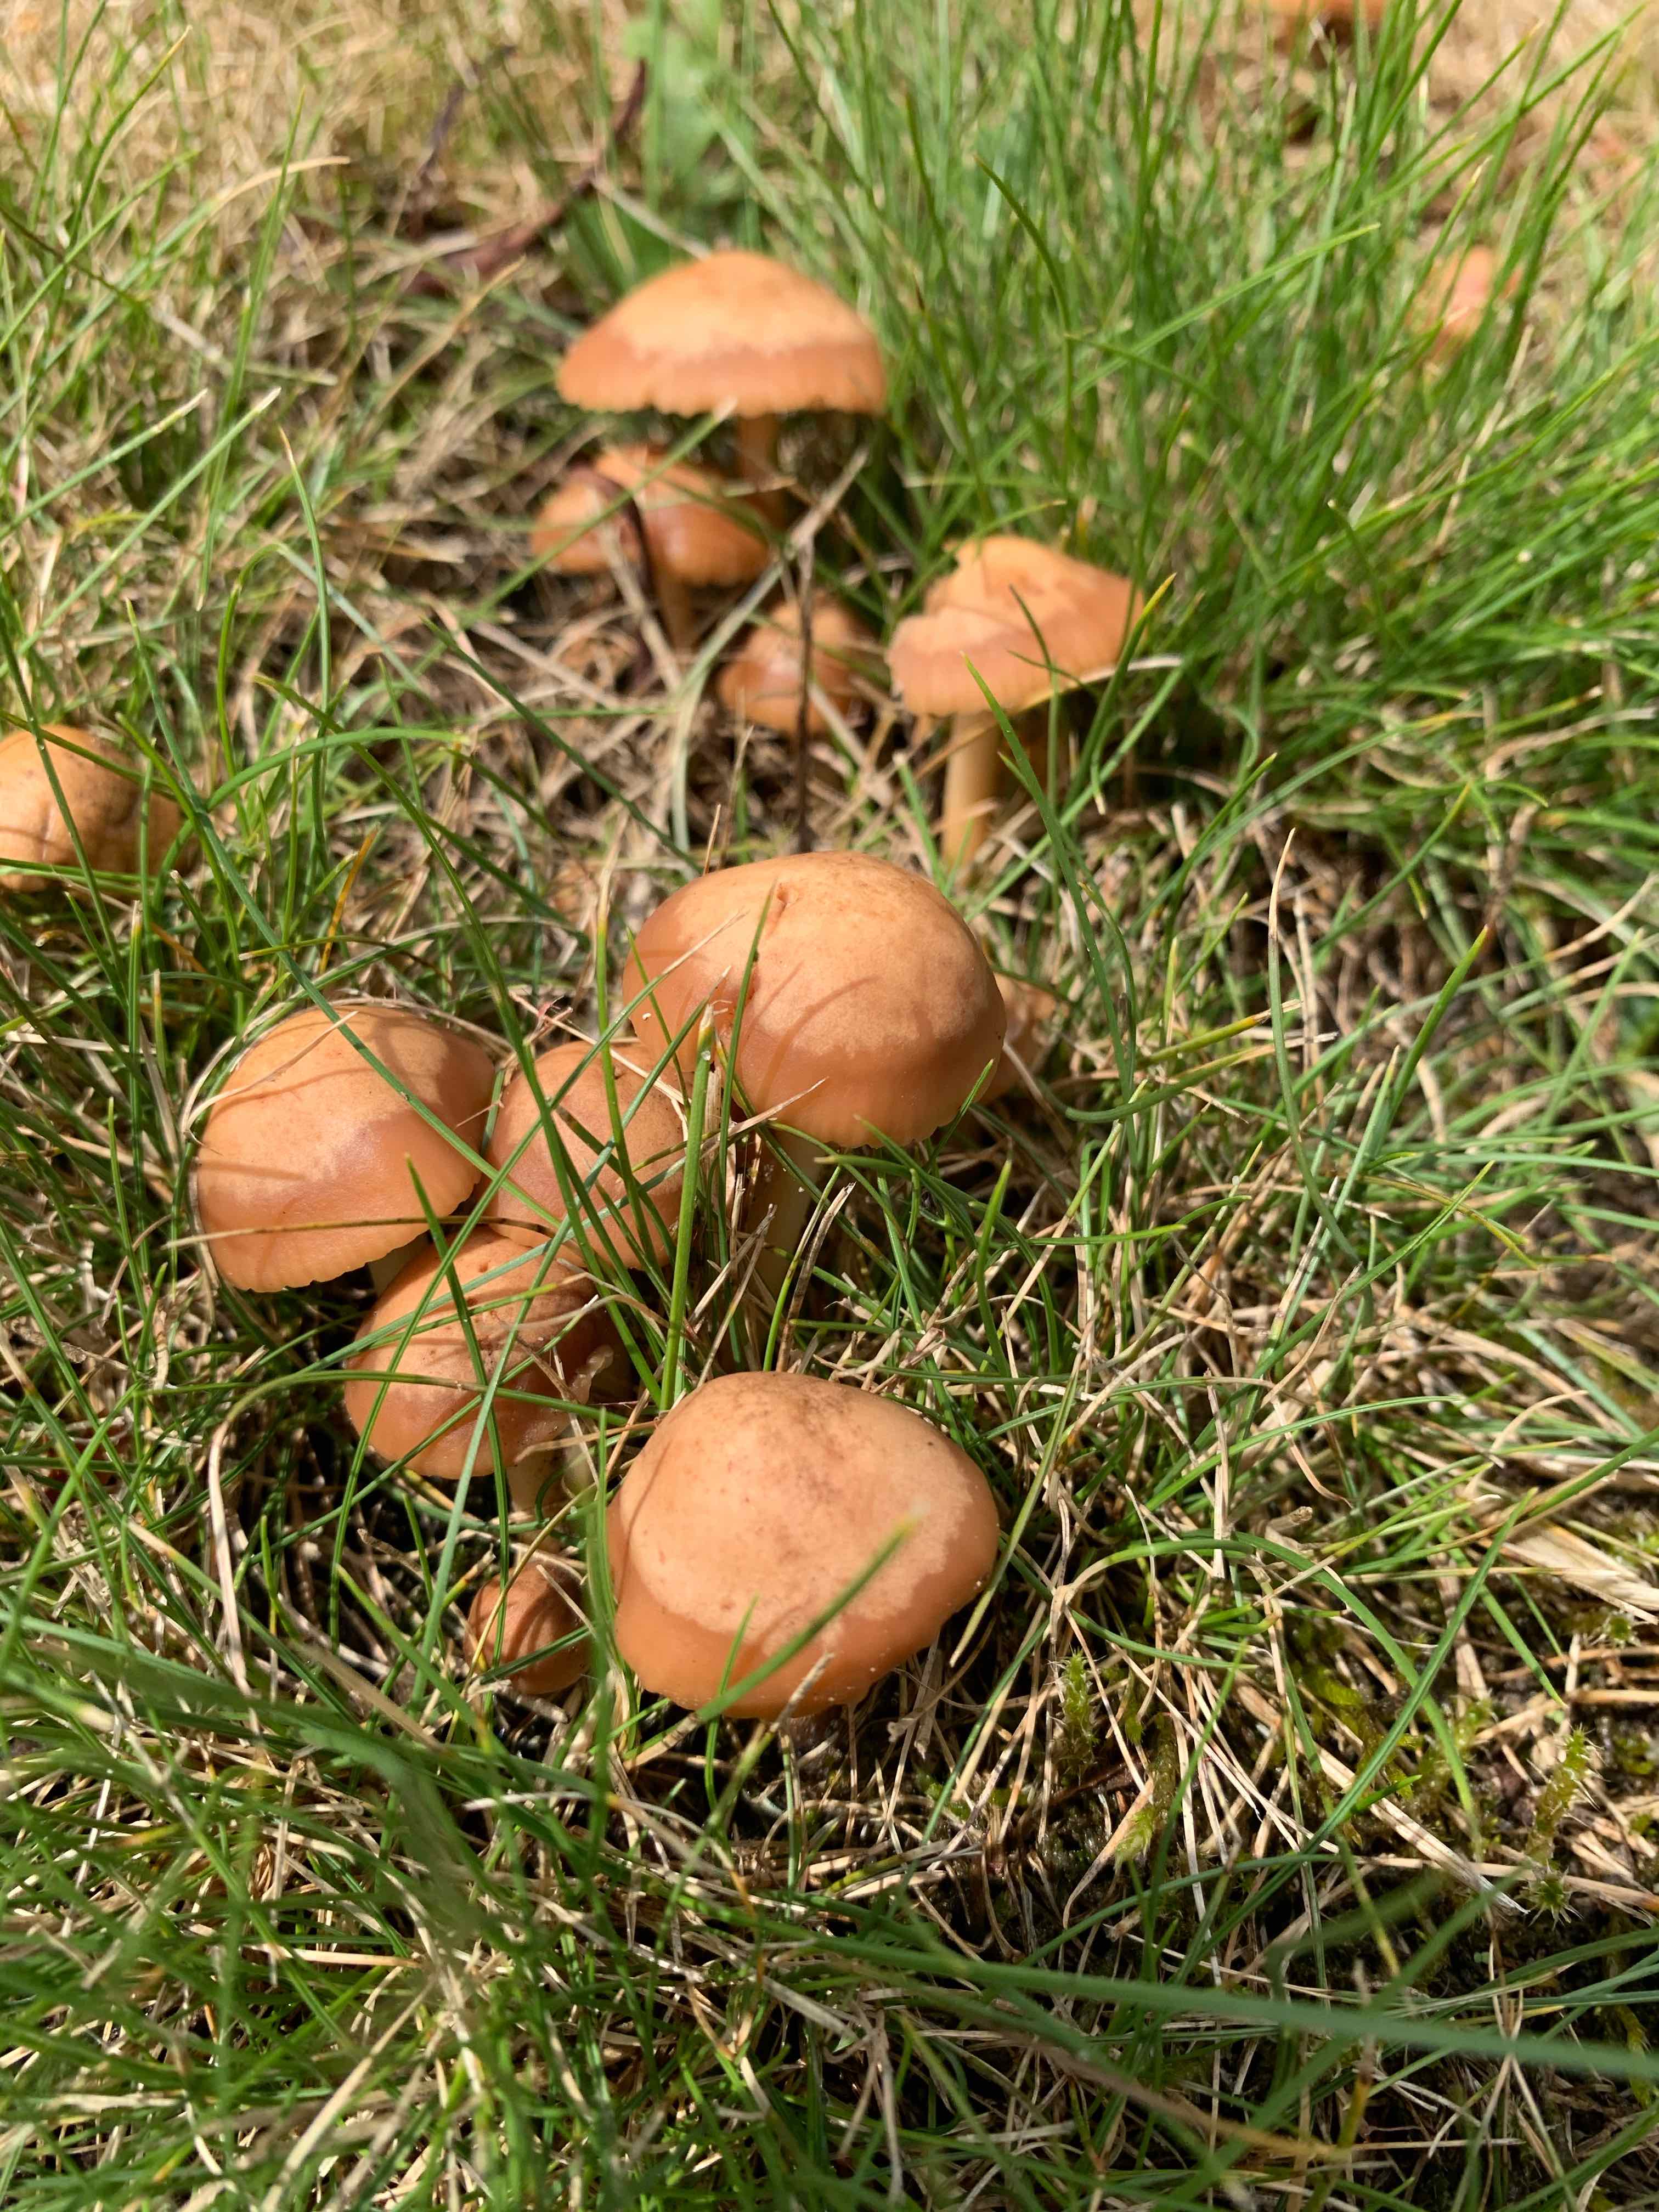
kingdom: Fungi
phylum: Basidiomycota
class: Agaricomycetes
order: Agaricales
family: Marasmiaceae
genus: Marasmius
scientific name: Marasmius oreades
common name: elledans-bruskhat
